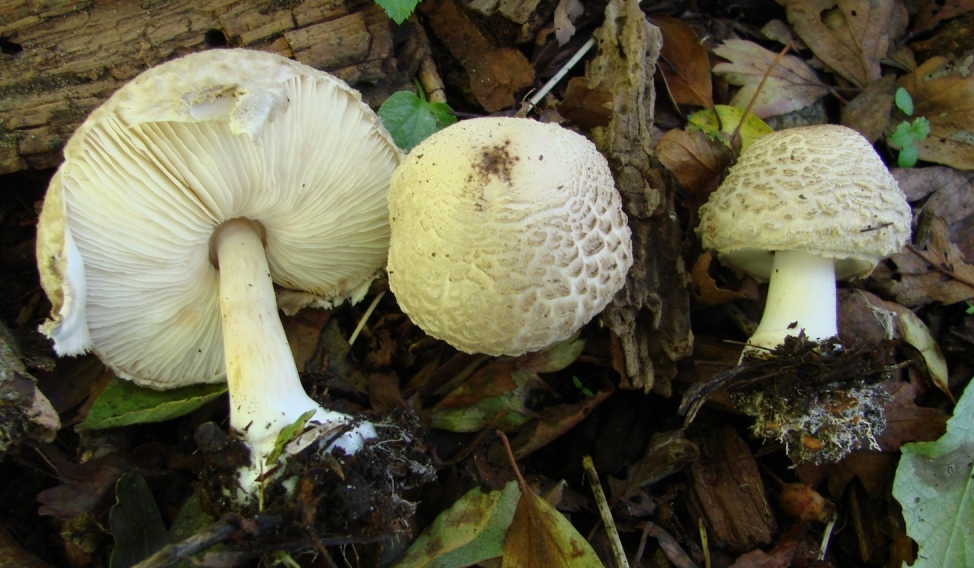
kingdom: Fungi
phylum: Basidiomycota
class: Agaricomycetes
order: Agaricales
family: Agaricaceae
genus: Chlorophyllum
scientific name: Chlorophyllum brunneum
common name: giftig rabarberhat
